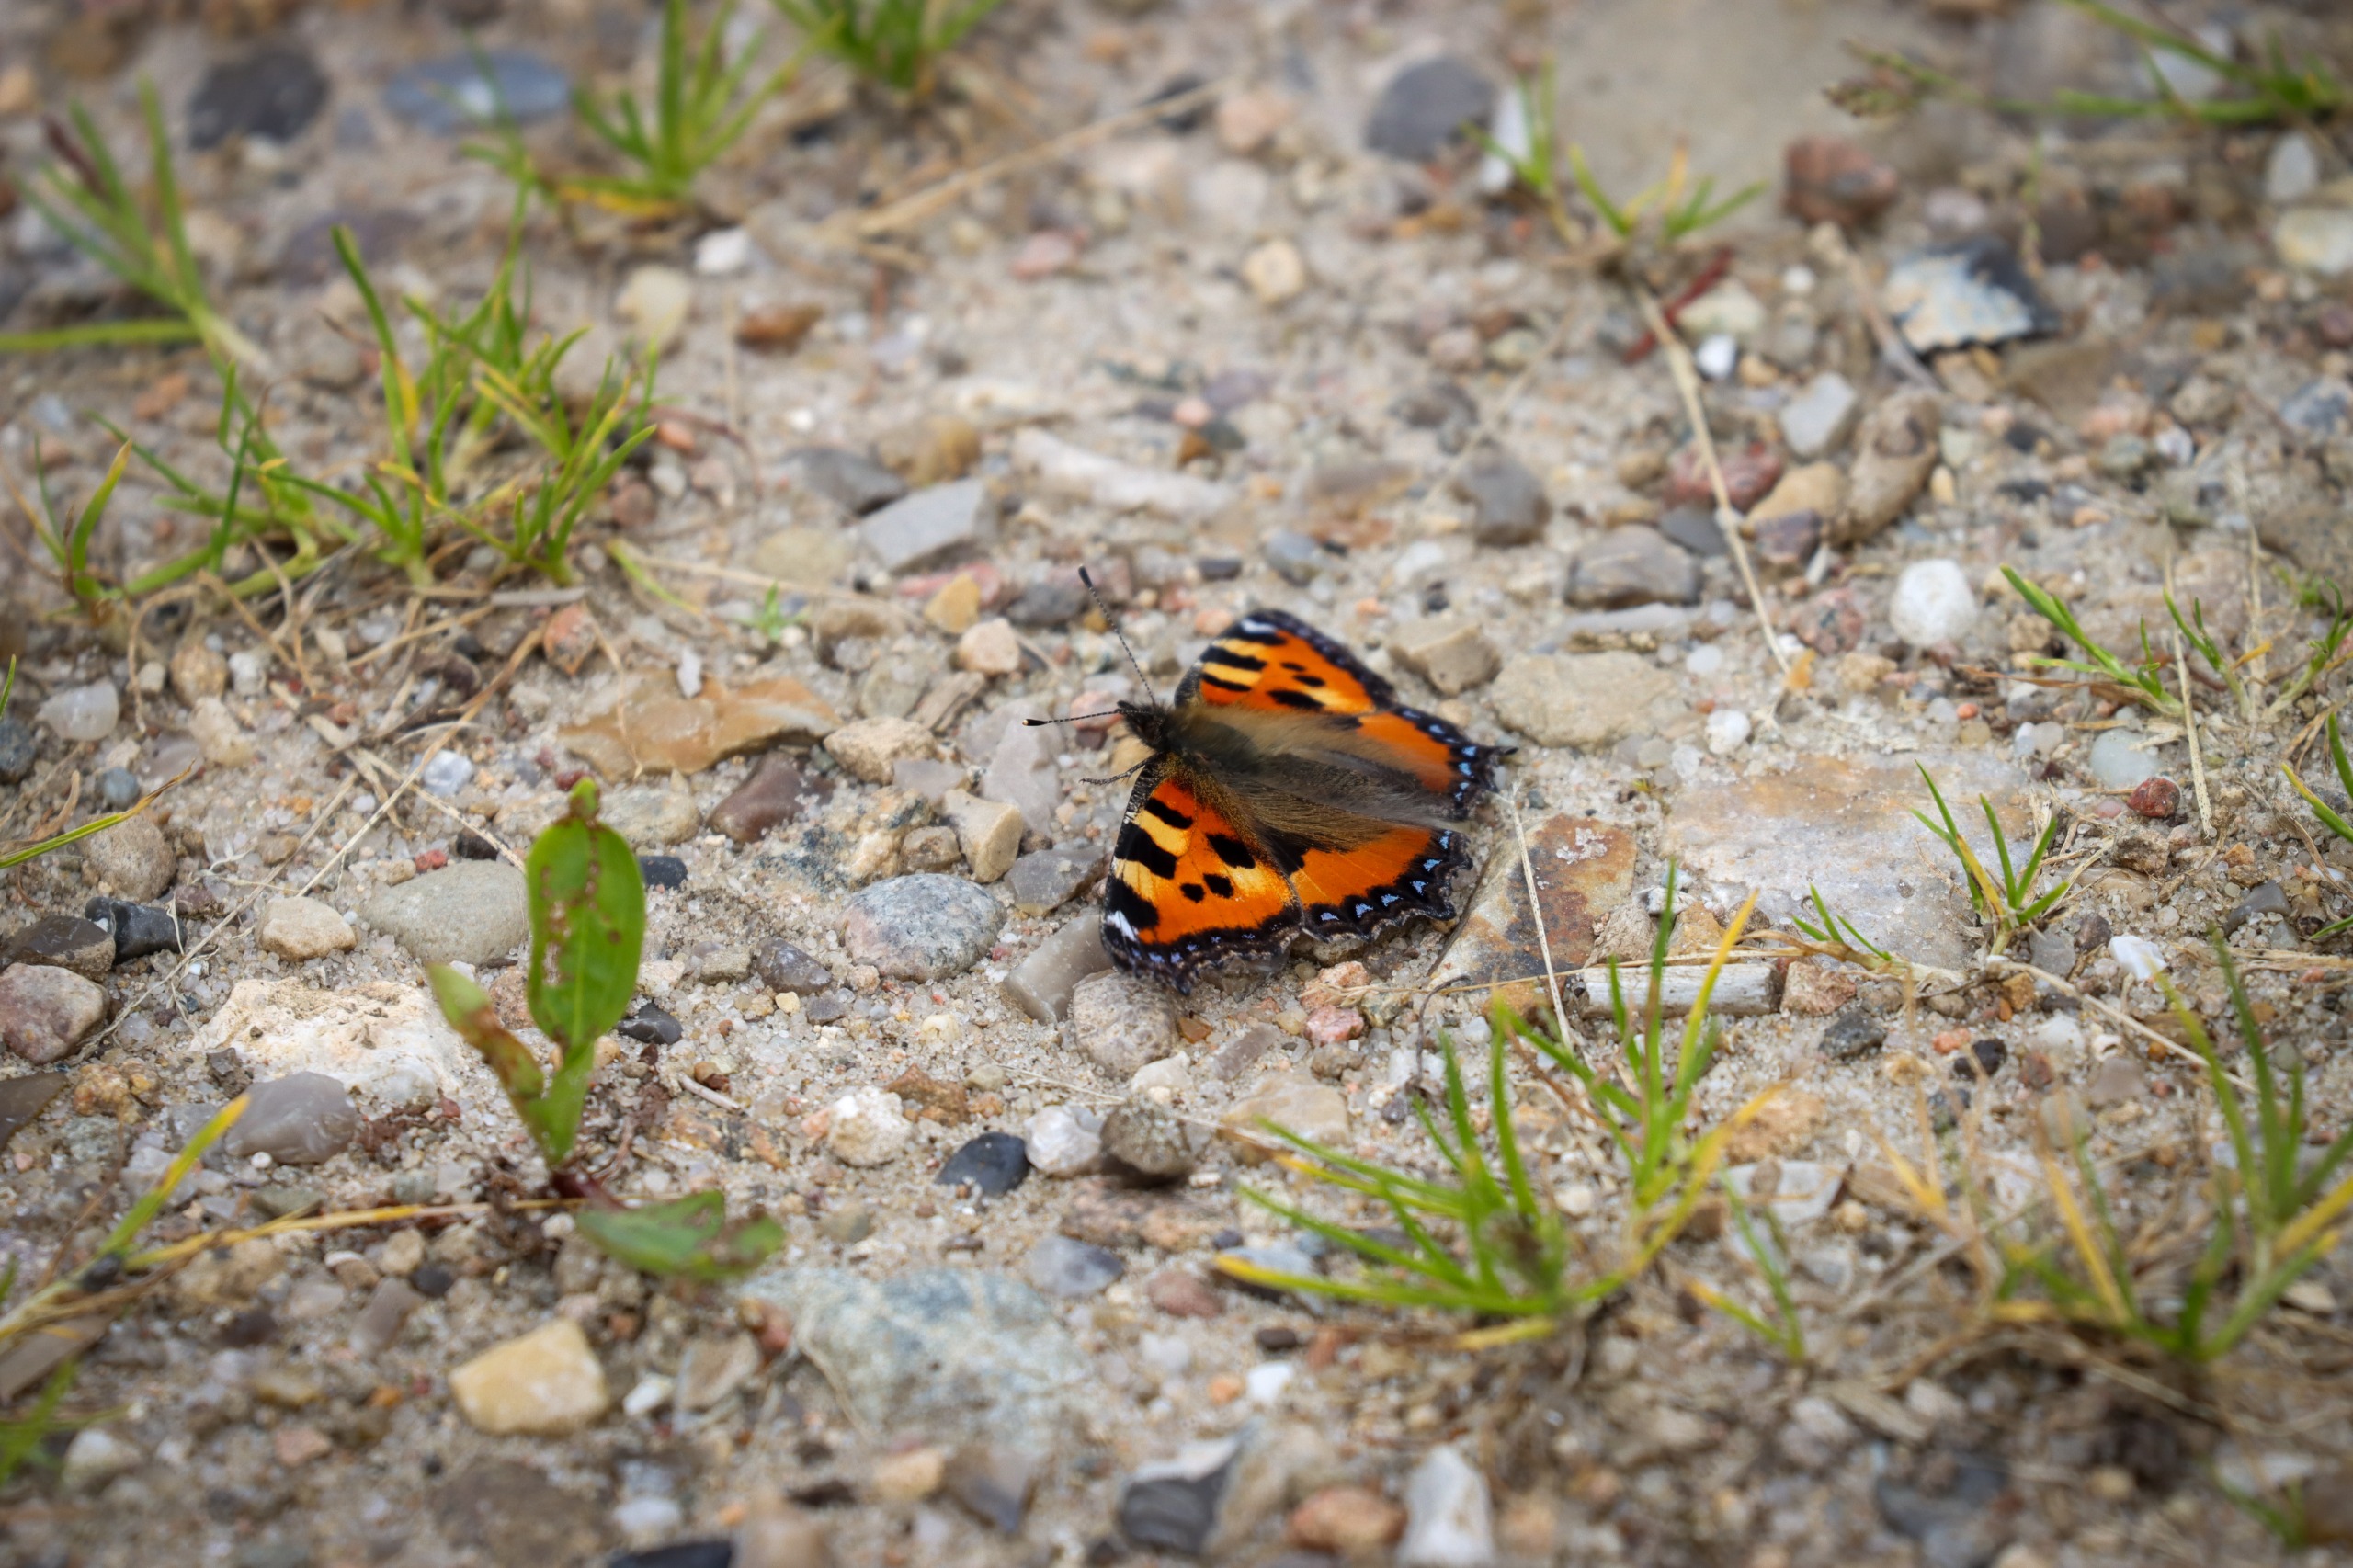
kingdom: Animalia
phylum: Arthropoda
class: Insecta
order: Lepidoptera
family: Nymphalidae
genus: Aglais
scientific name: Aglais urticae
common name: Nældens takvinge
